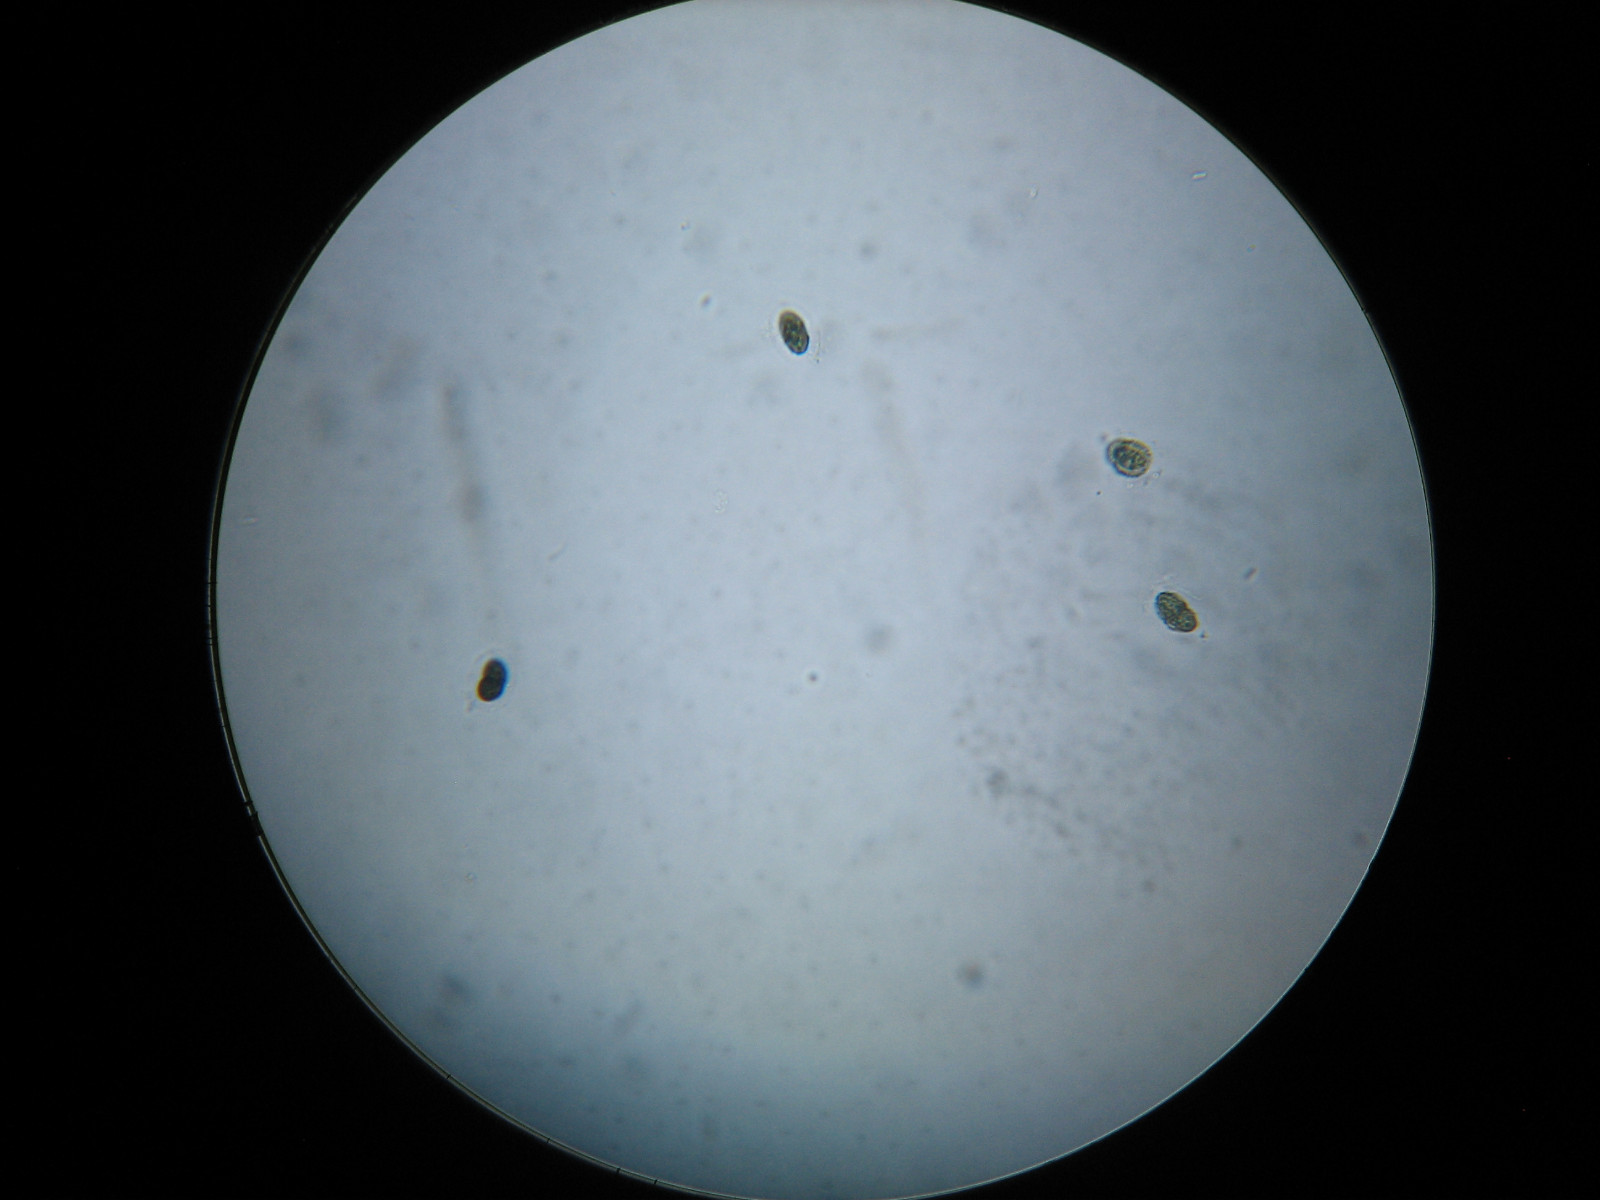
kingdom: Fungi
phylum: Ascomycota
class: Dothideomycetes
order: Trypetheliales
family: Polycoccaceae
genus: Polycoccum
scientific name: Polycoccum pulvinatum
